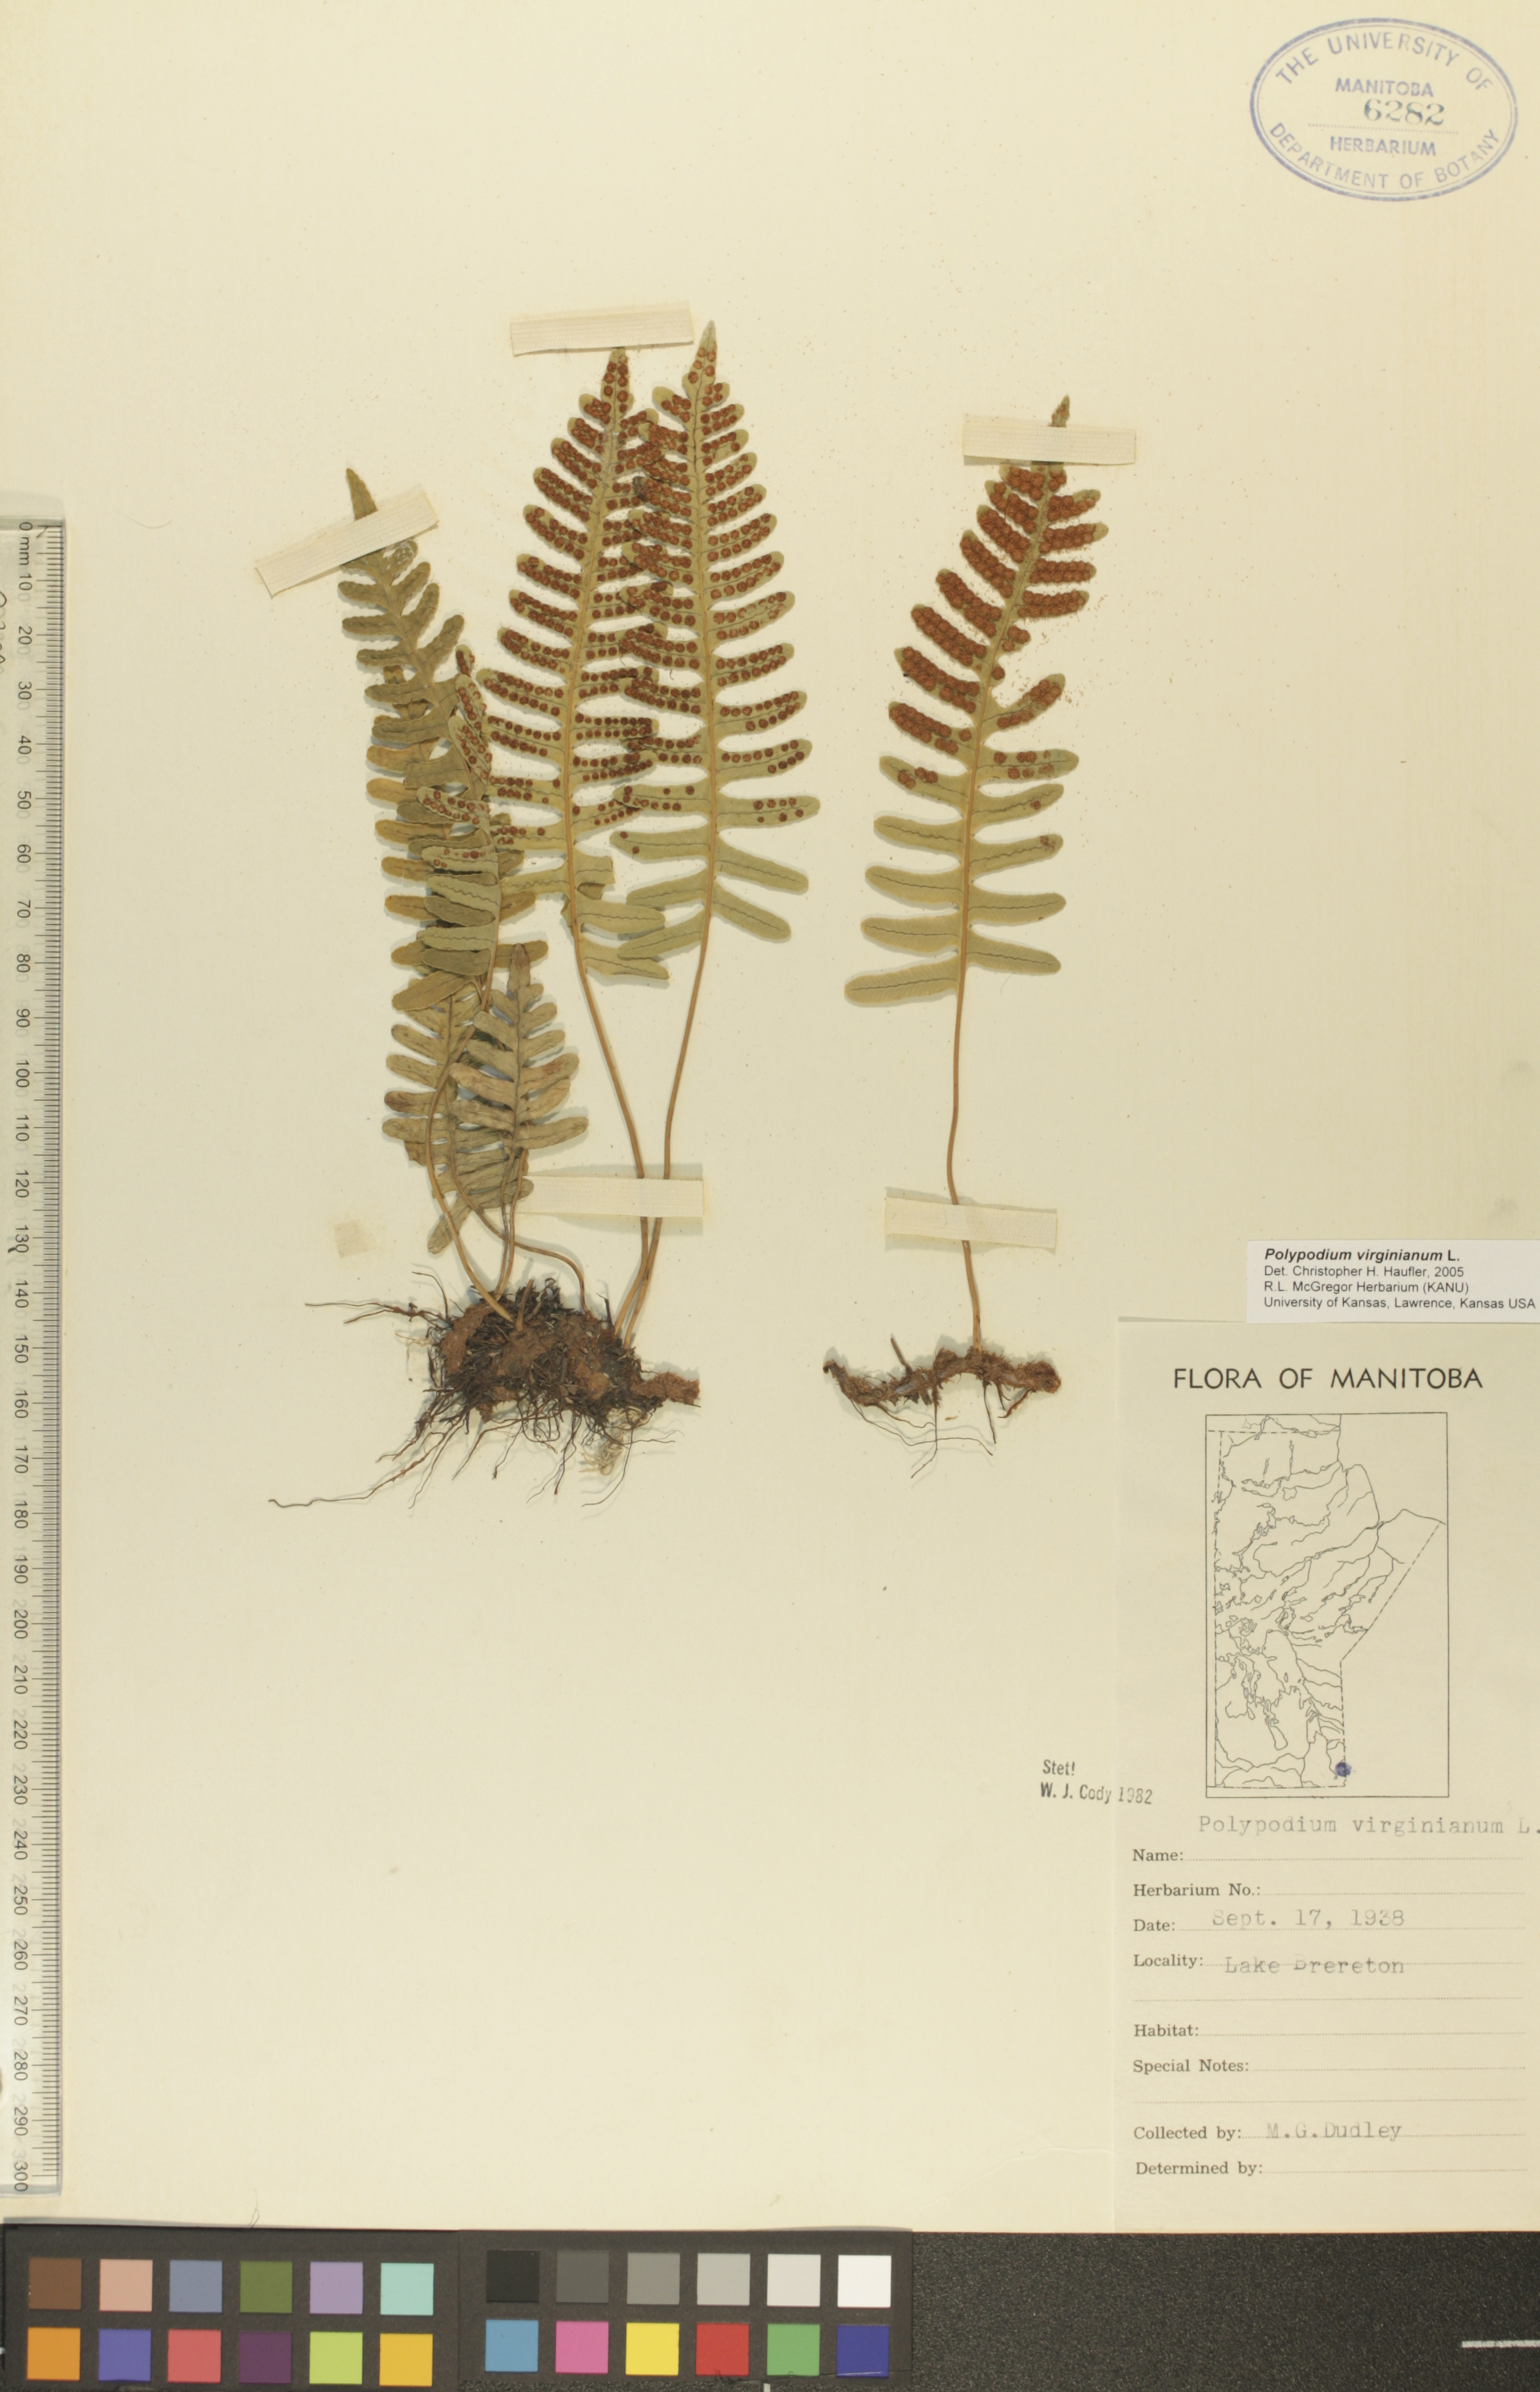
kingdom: Plantae
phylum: Tracheophyta
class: Polypodiopsida
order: Polypodiales
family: Polypodiaceae
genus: Polypodium
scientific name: Polypodium virginianum
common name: American wall fern
